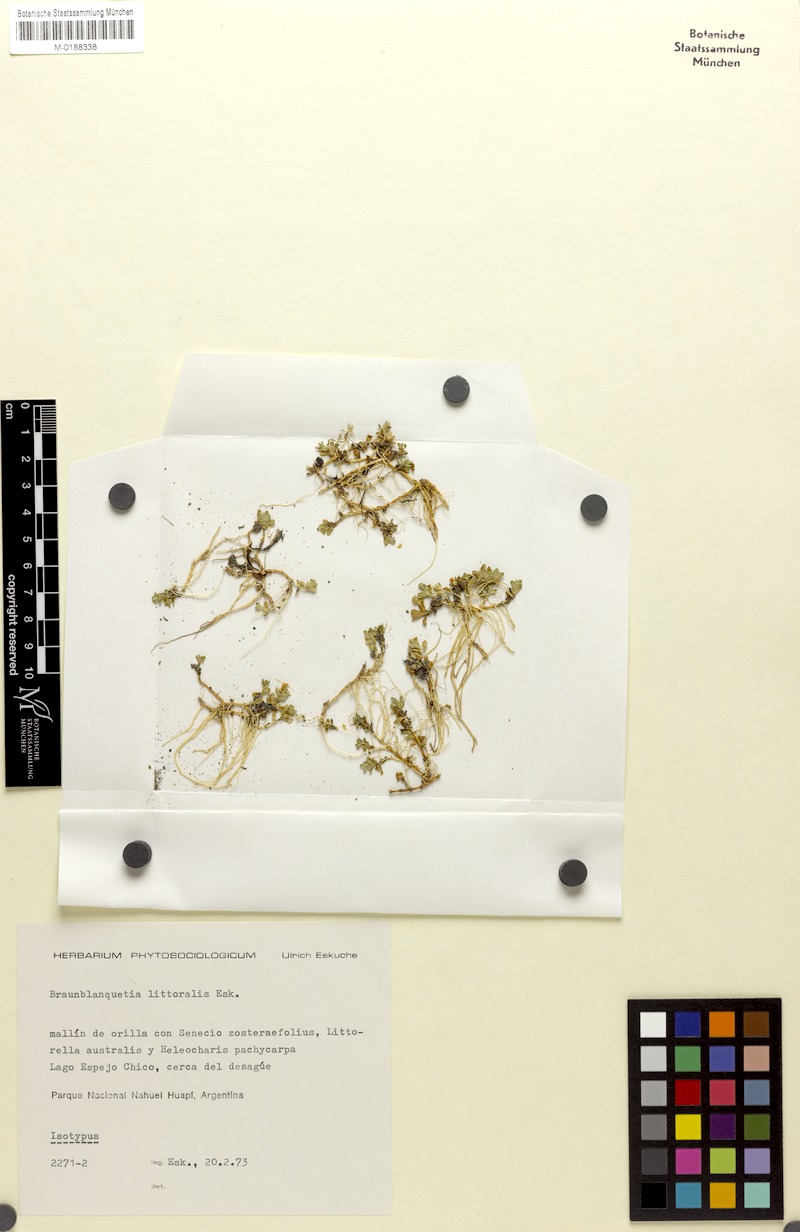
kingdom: Plantae
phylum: Tracheophyta
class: Magnoliopsida
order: Lamiales
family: Plantaginaceae
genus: Fonkia
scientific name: Fonkia uliginosa
